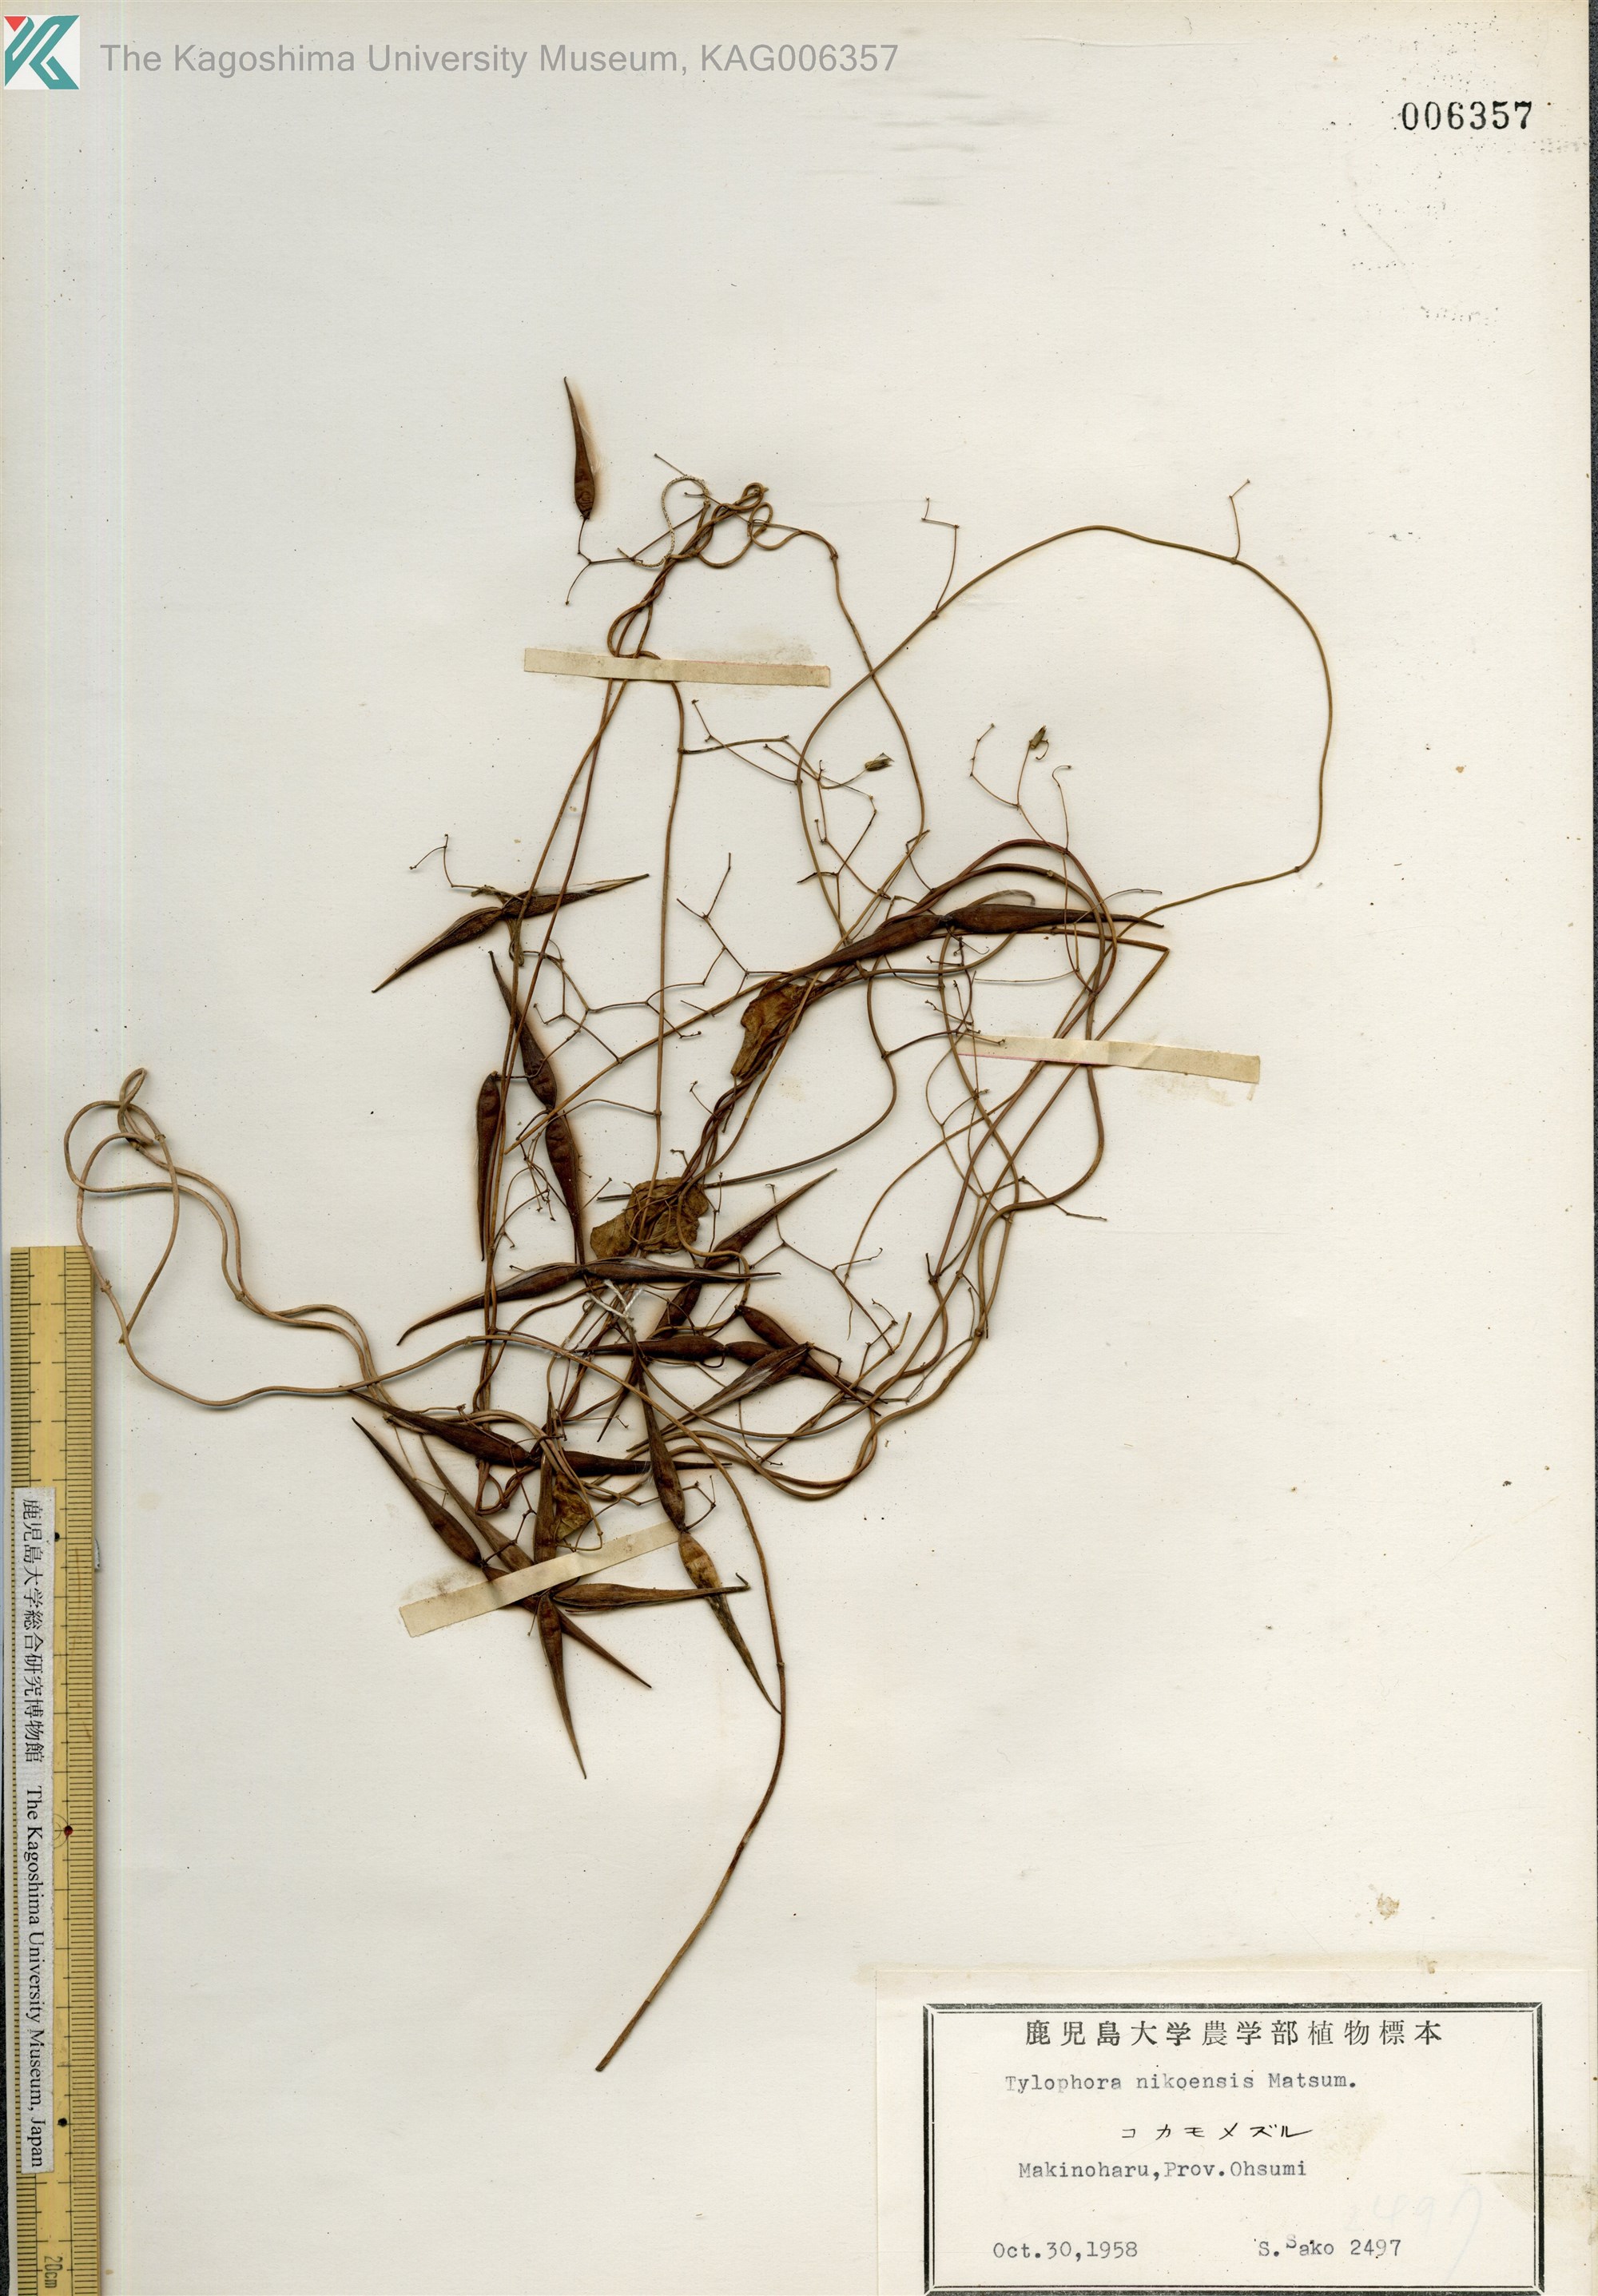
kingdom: Plantae
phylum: Tracheophyta
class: Magnoliopsida
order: Gentianales
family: Apocynaceae
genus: Vincetoxicum
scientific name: Vincetoxicum nikoense
